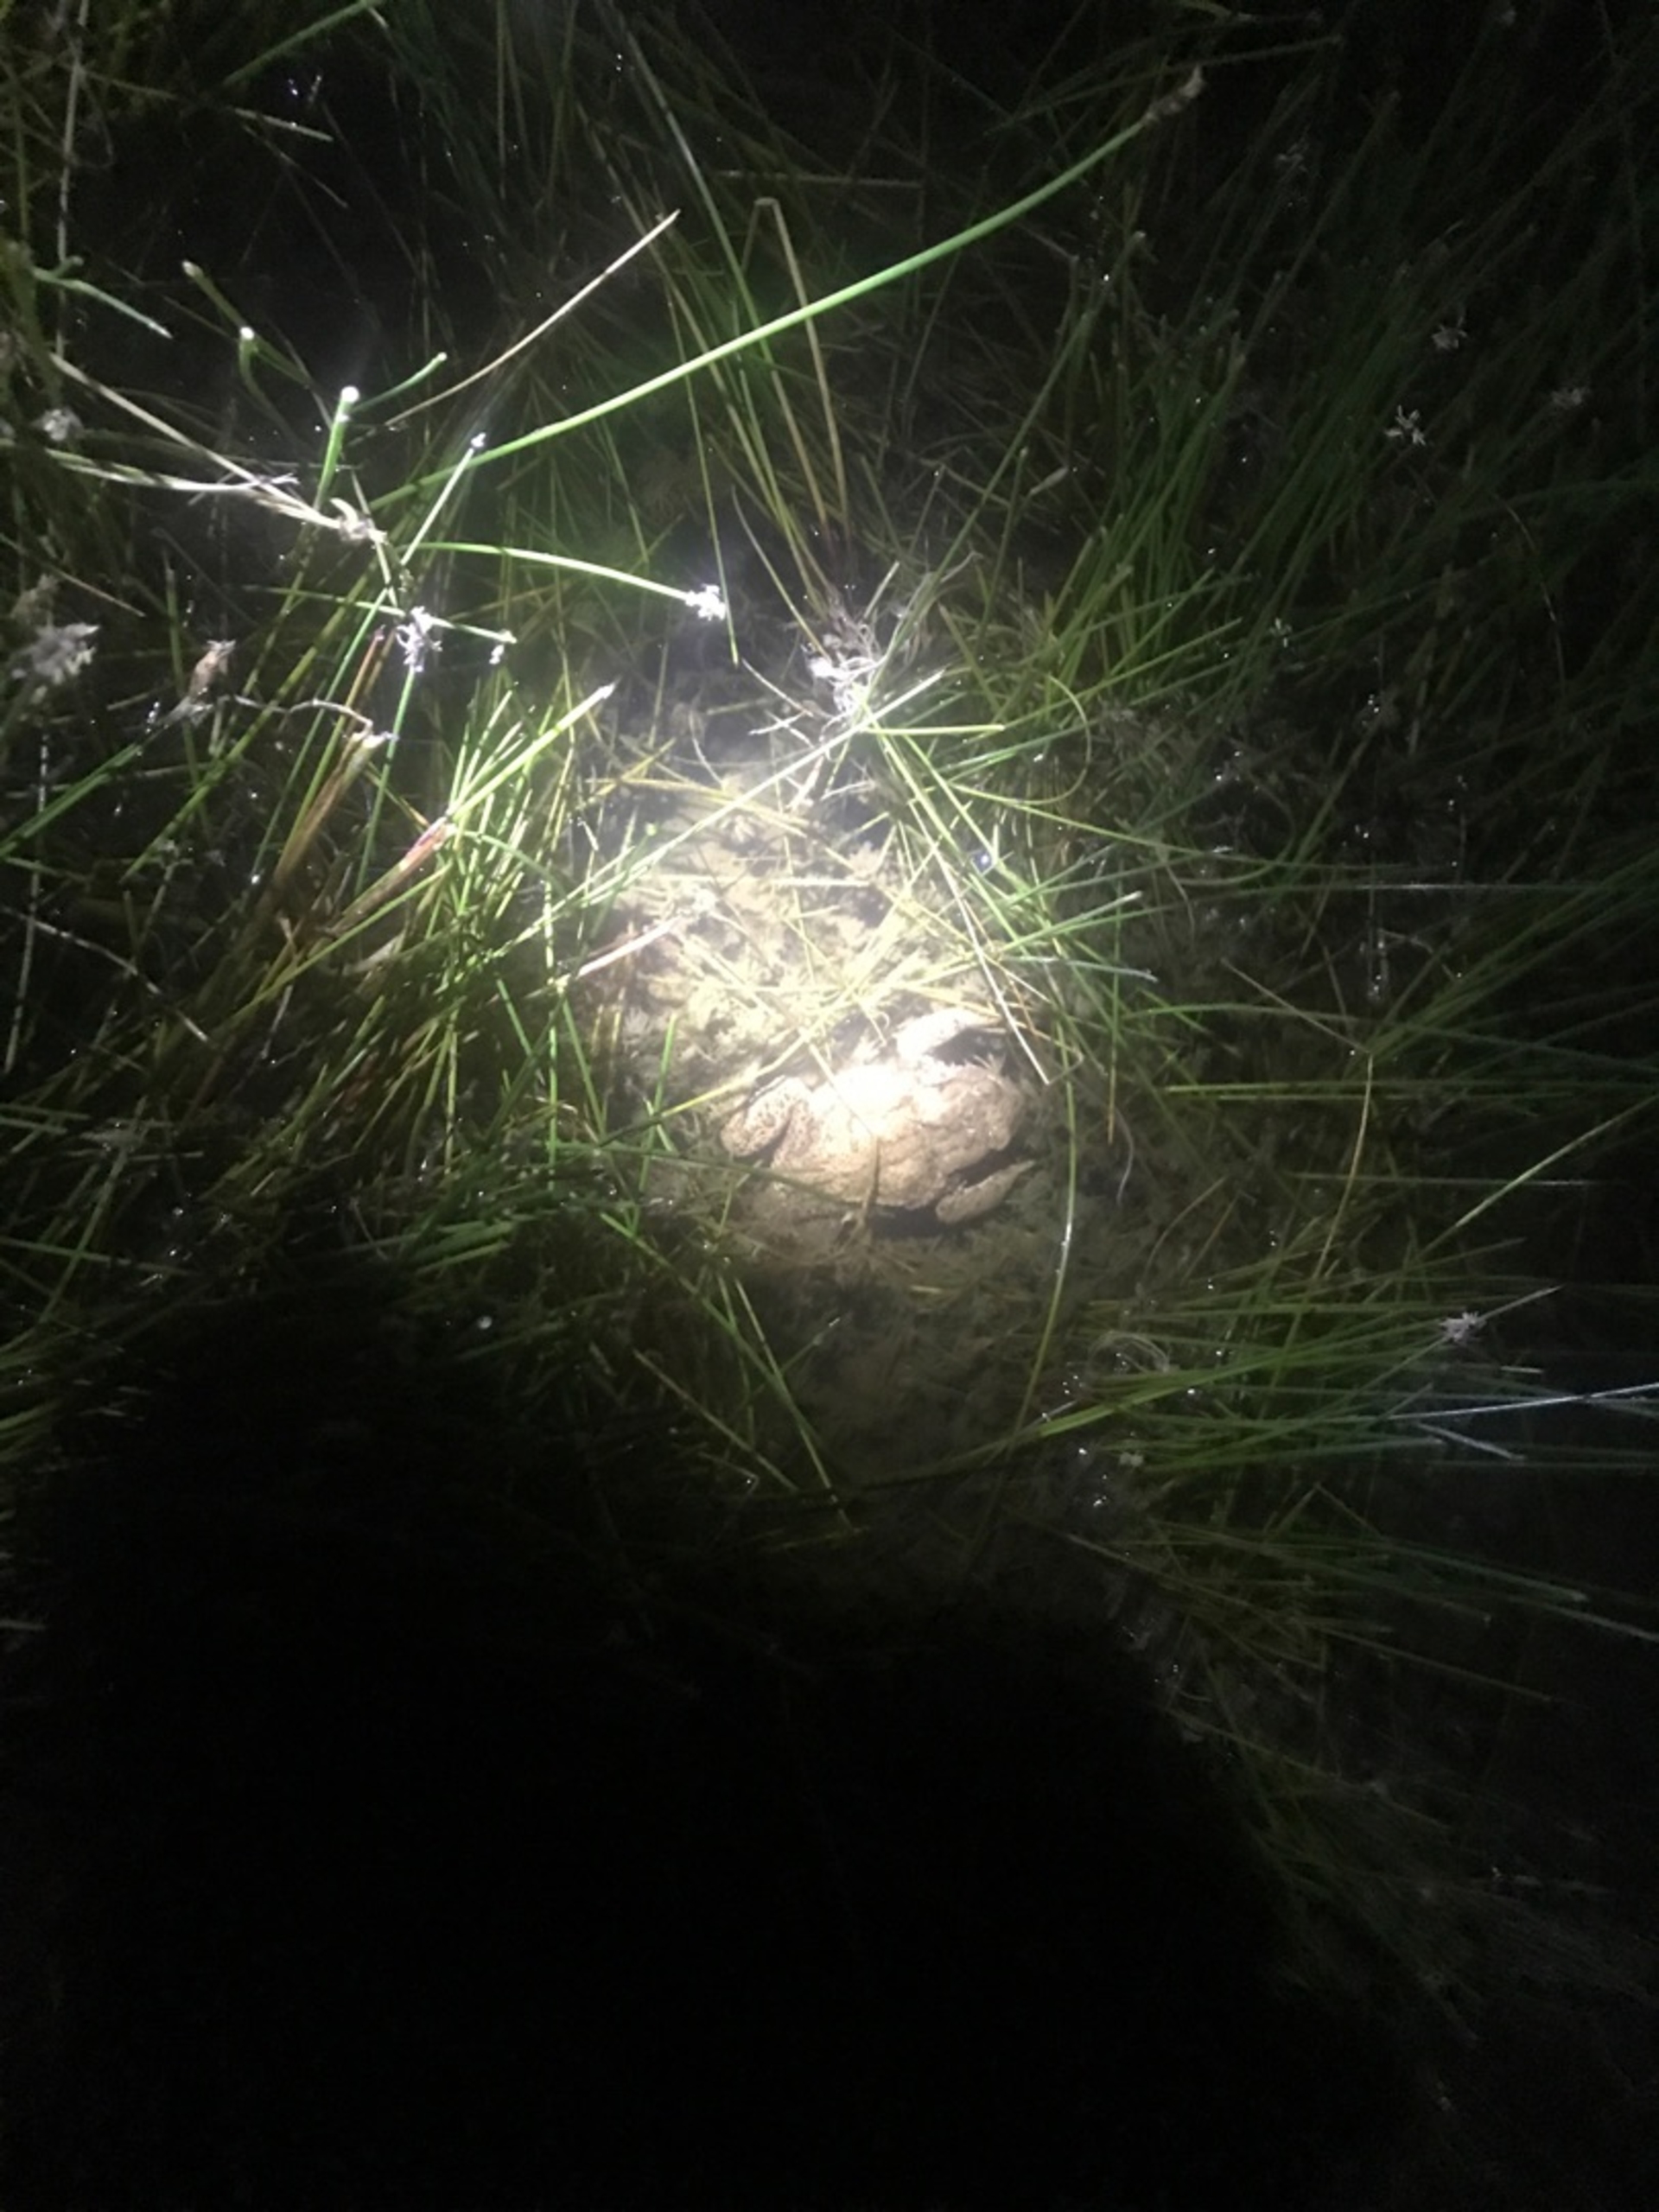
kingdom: Animalia
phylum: Chordata
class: Amphibia
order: Anura
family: Bufonidae
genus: Bufo
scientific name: Bufo bufo
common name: Skrubtudse
